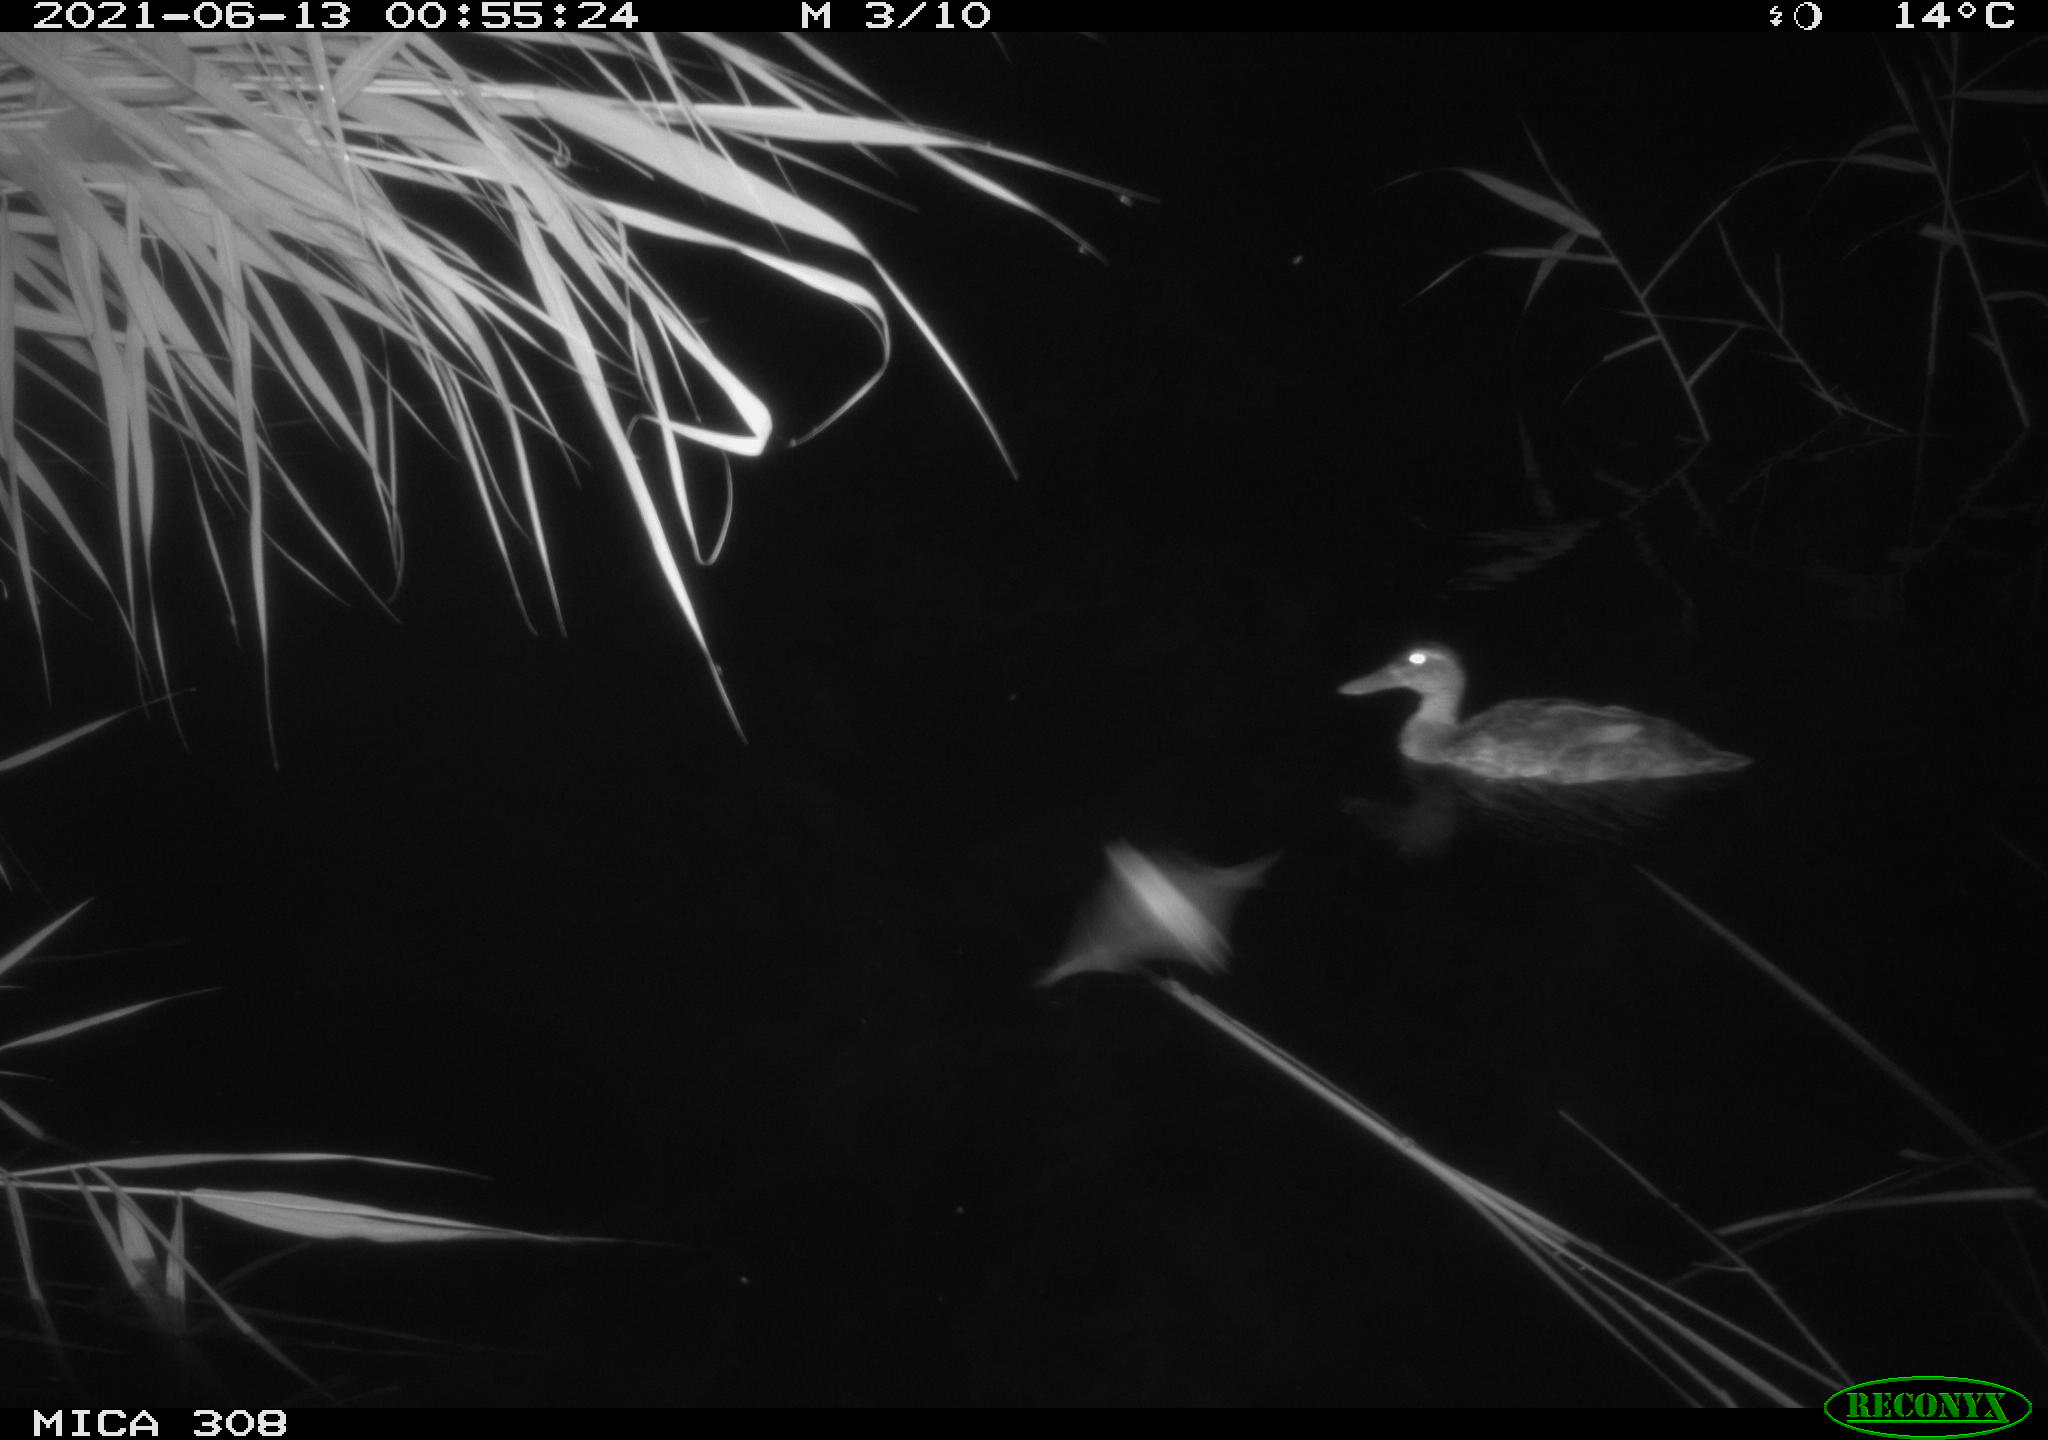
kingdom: Animalia
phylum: Chordata
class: Aves
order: Anseriformes
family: Anatidae
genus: Anas
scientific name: Anas platyrhynchos
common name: Mallard
